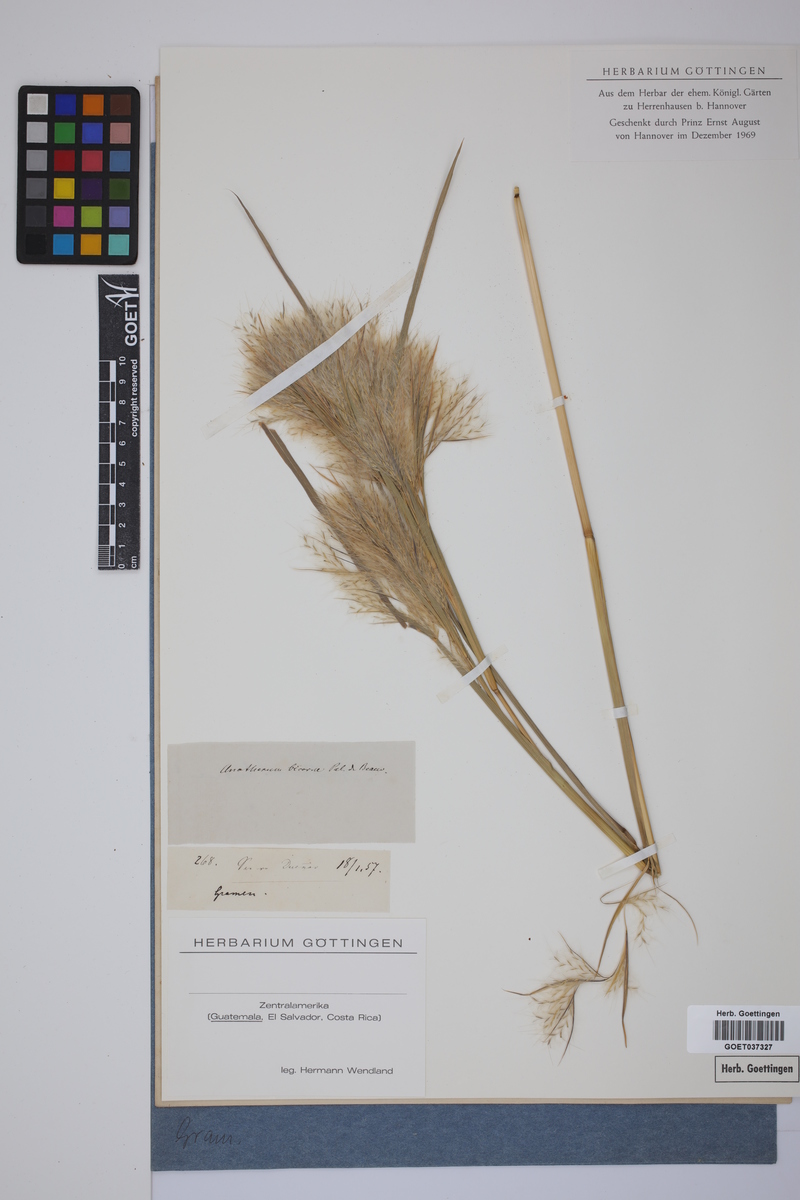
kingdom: Plantae
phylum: Tracheophyta
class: Liliopsida
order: Poales
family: Poaceae
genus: Andropogon
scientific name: Andropogon bicornis
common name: West indian foxtail grass
